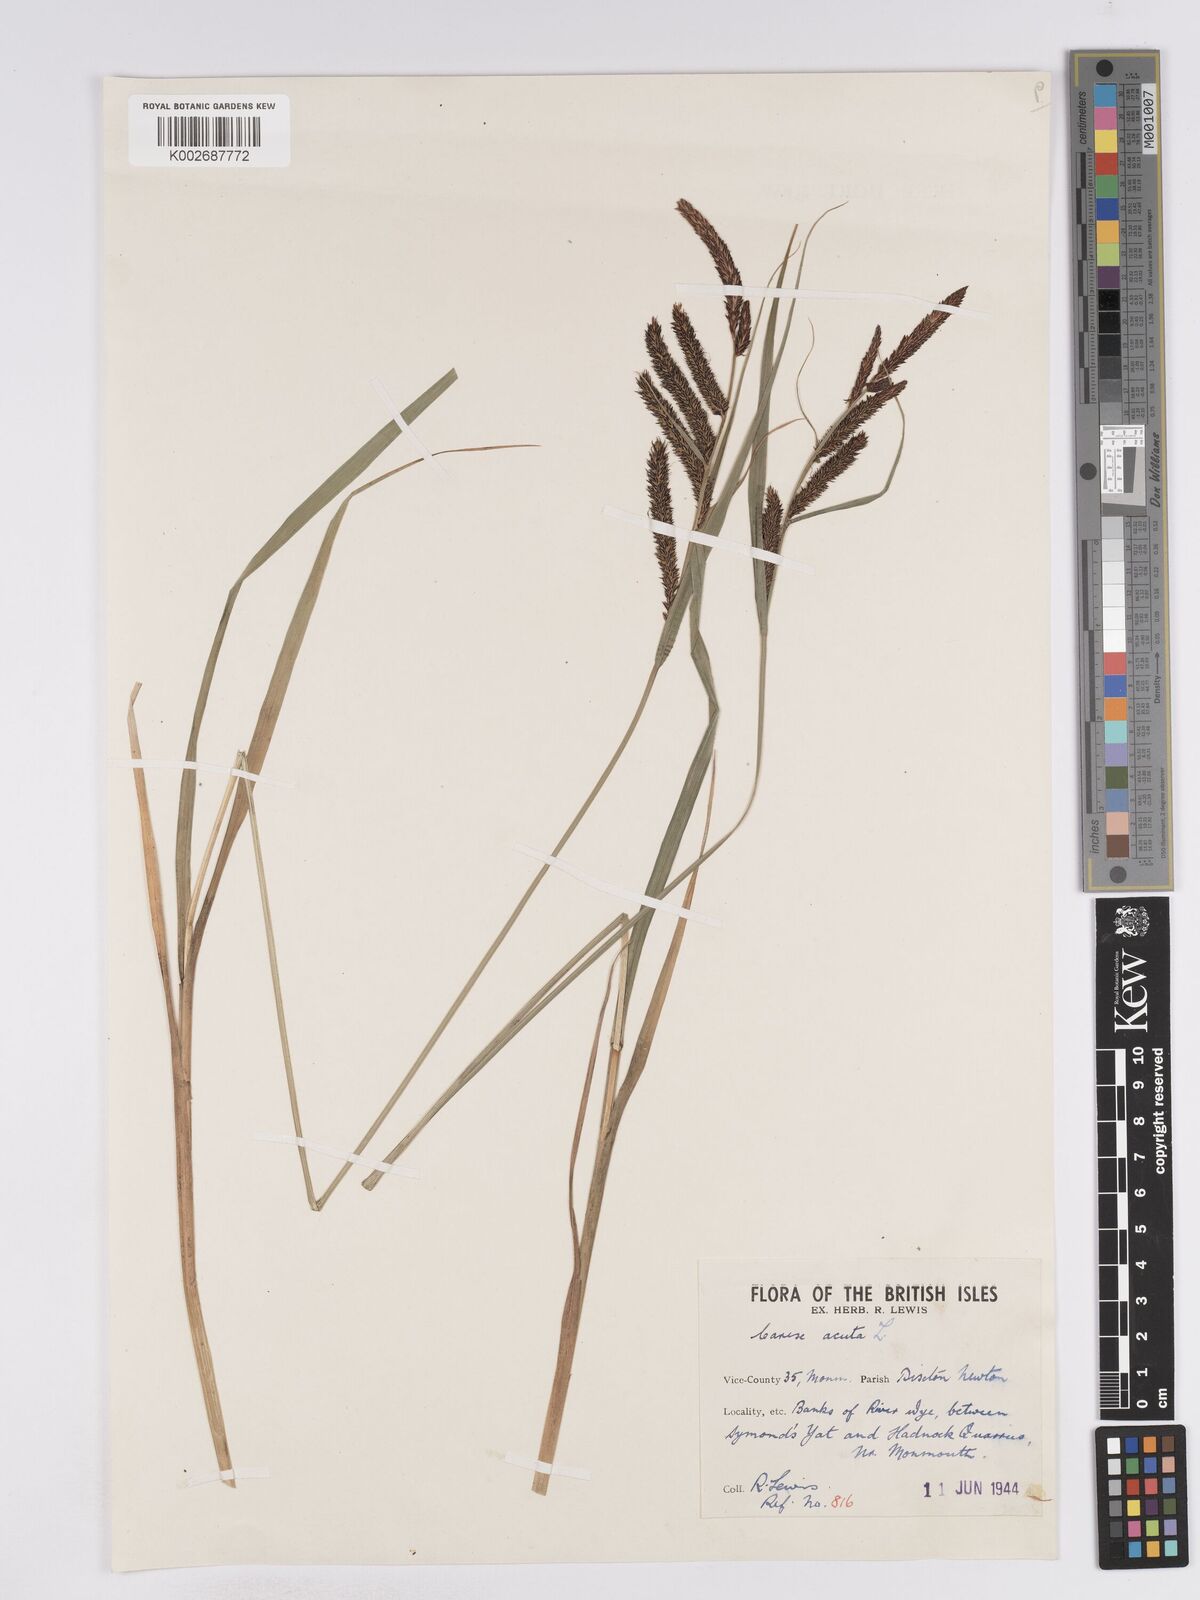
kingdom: Plantae
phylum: Tracheophyta
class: Liliopsida
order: Poales
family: Cyperaceae
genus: Carex
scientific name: Carex acuta
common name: Slender tufted-sedge
